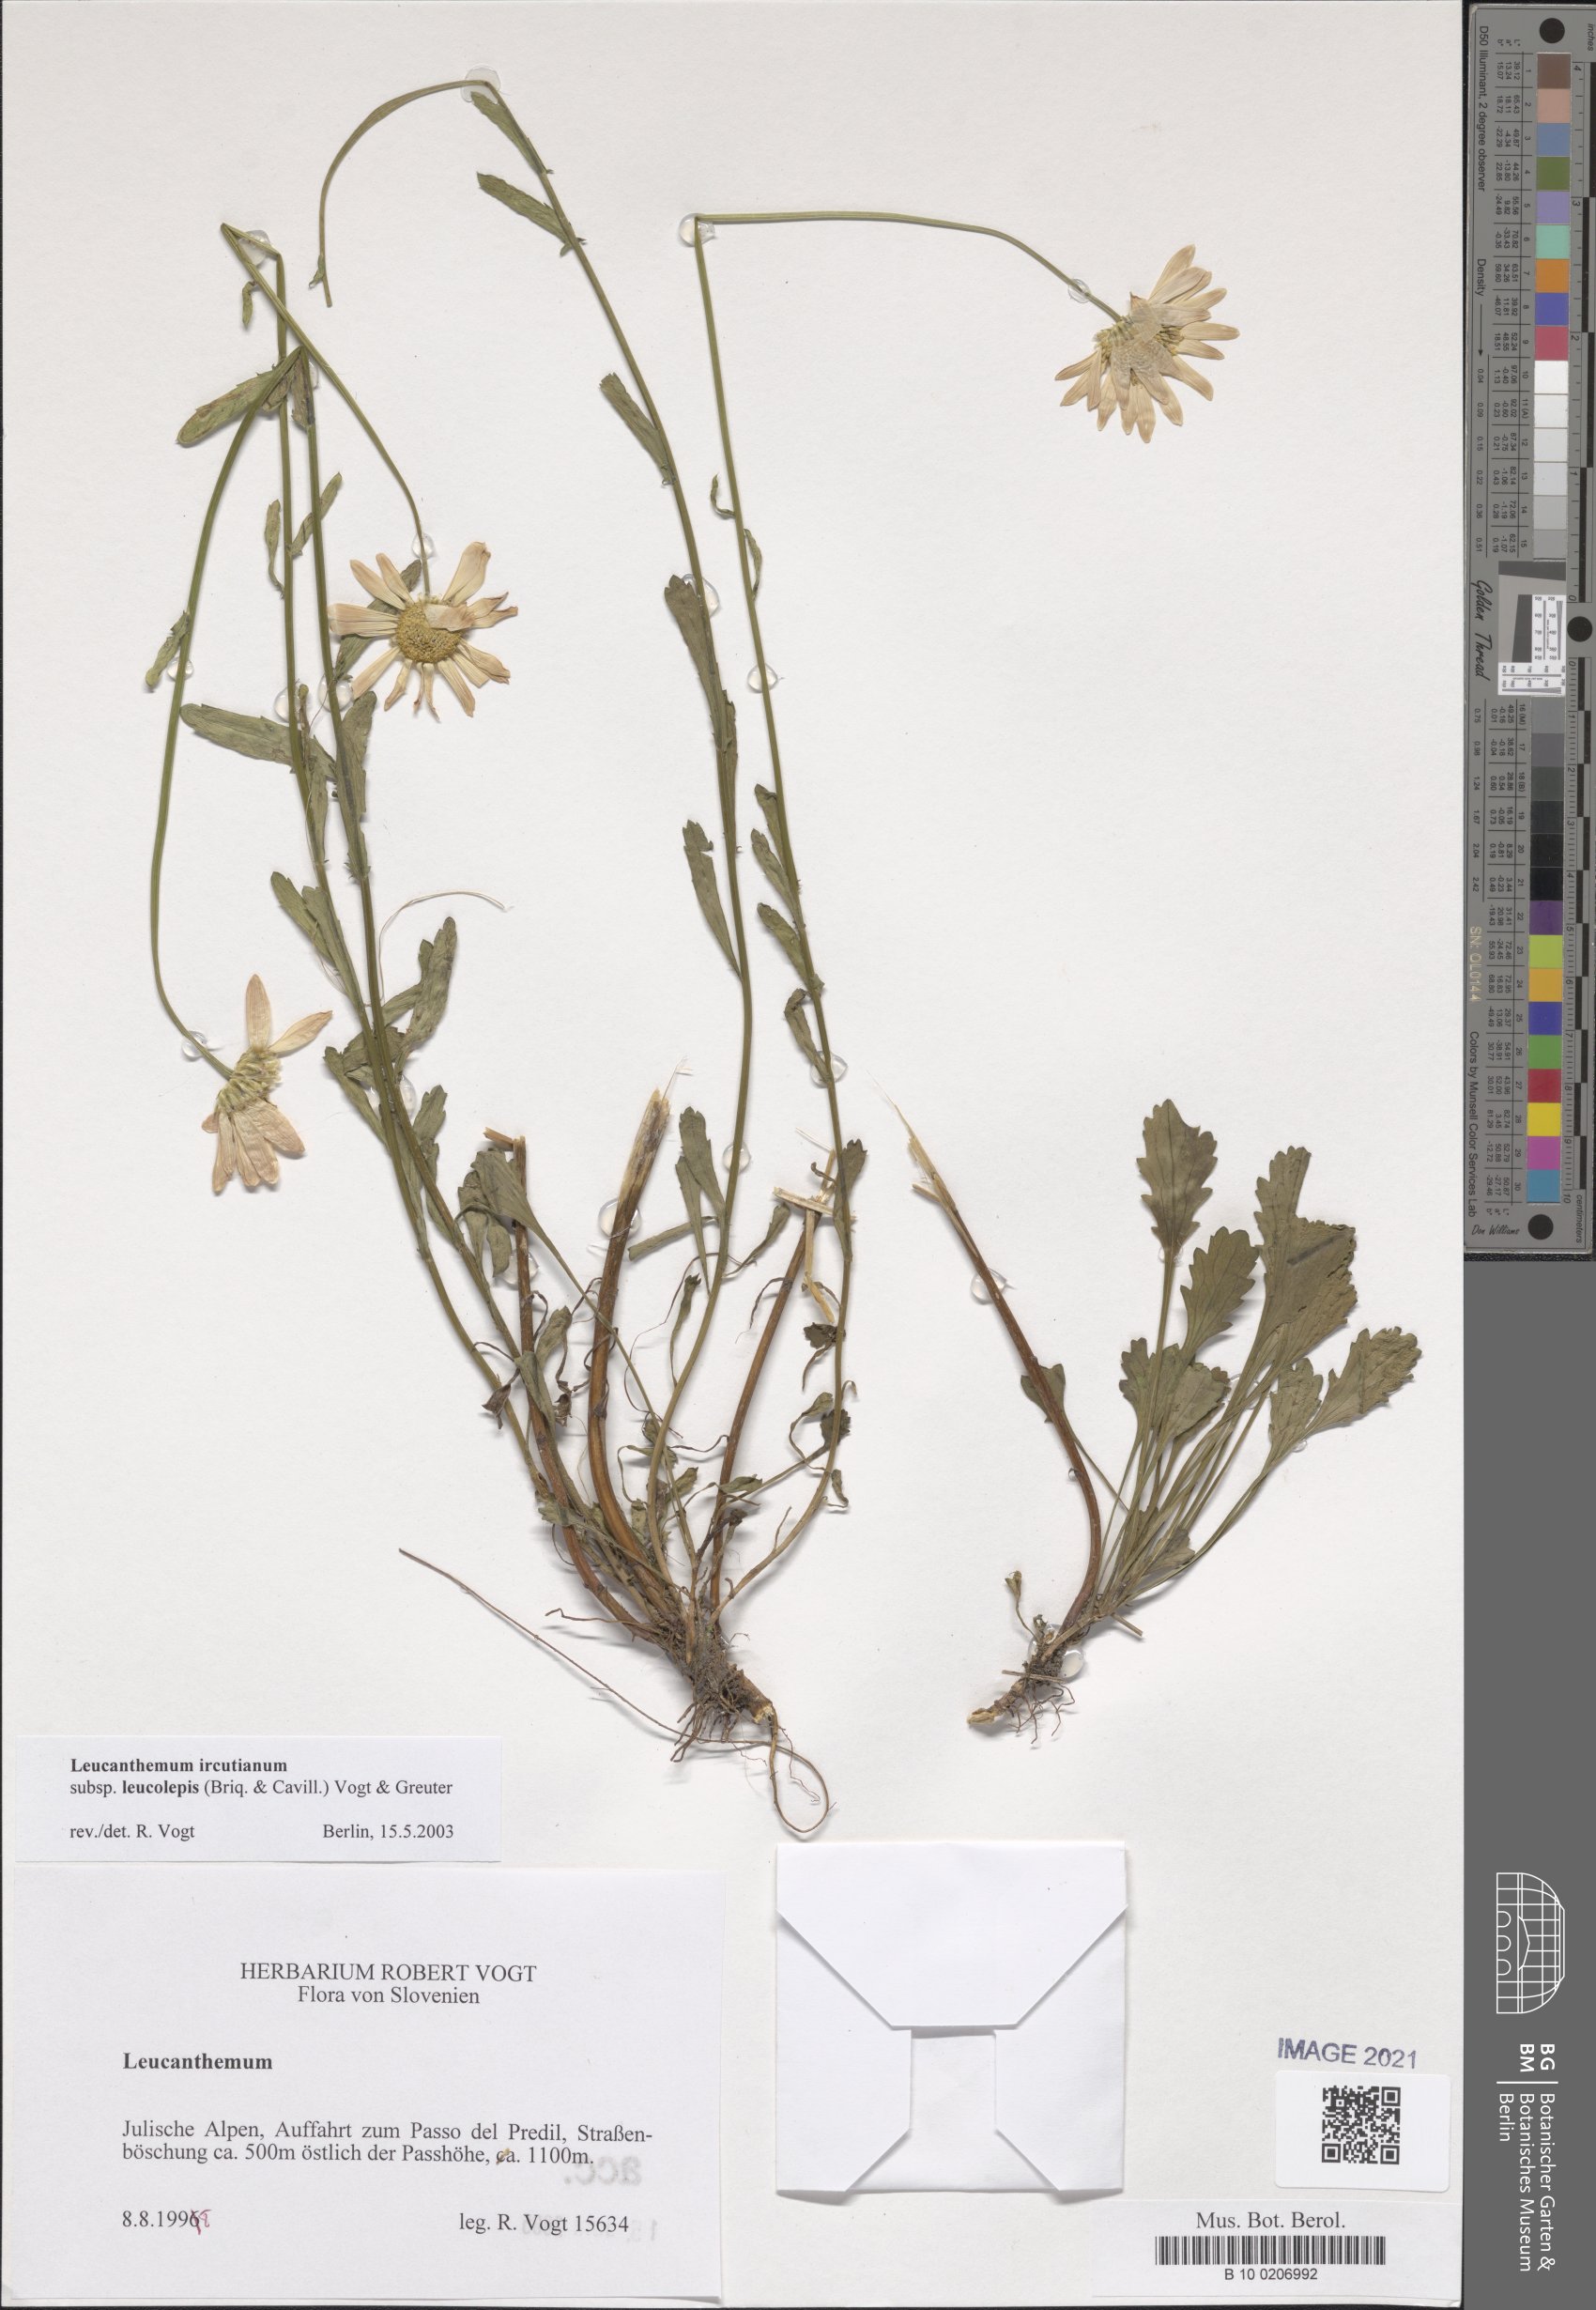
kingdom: Plantae
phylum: Tracheophyta
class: Magnoliopsida
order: Asterales
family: Asteraceae
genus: Leucanthemum
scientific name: Leucanthemum ircutianum
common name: Daisy
